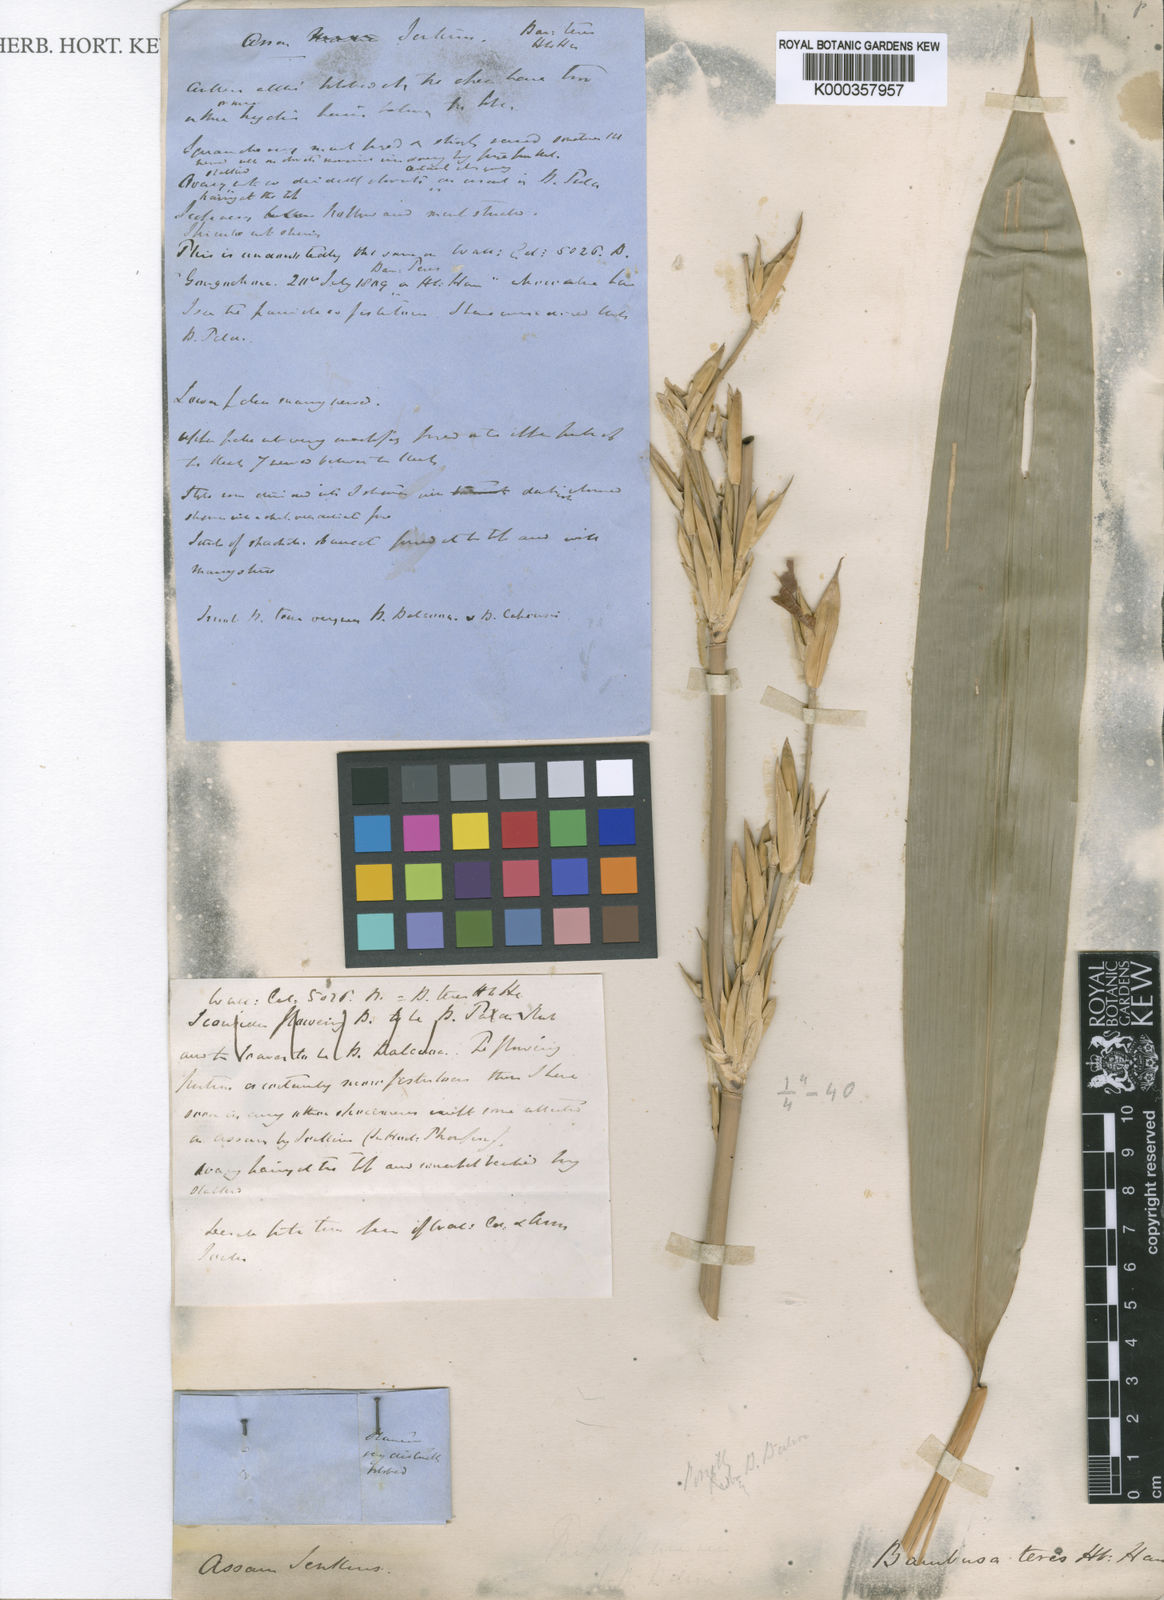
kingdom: Plantae
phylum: Tracheophyta
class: Liliopsida
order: Poales
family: Poaceae
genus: Bambusa
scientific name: Bambusa
